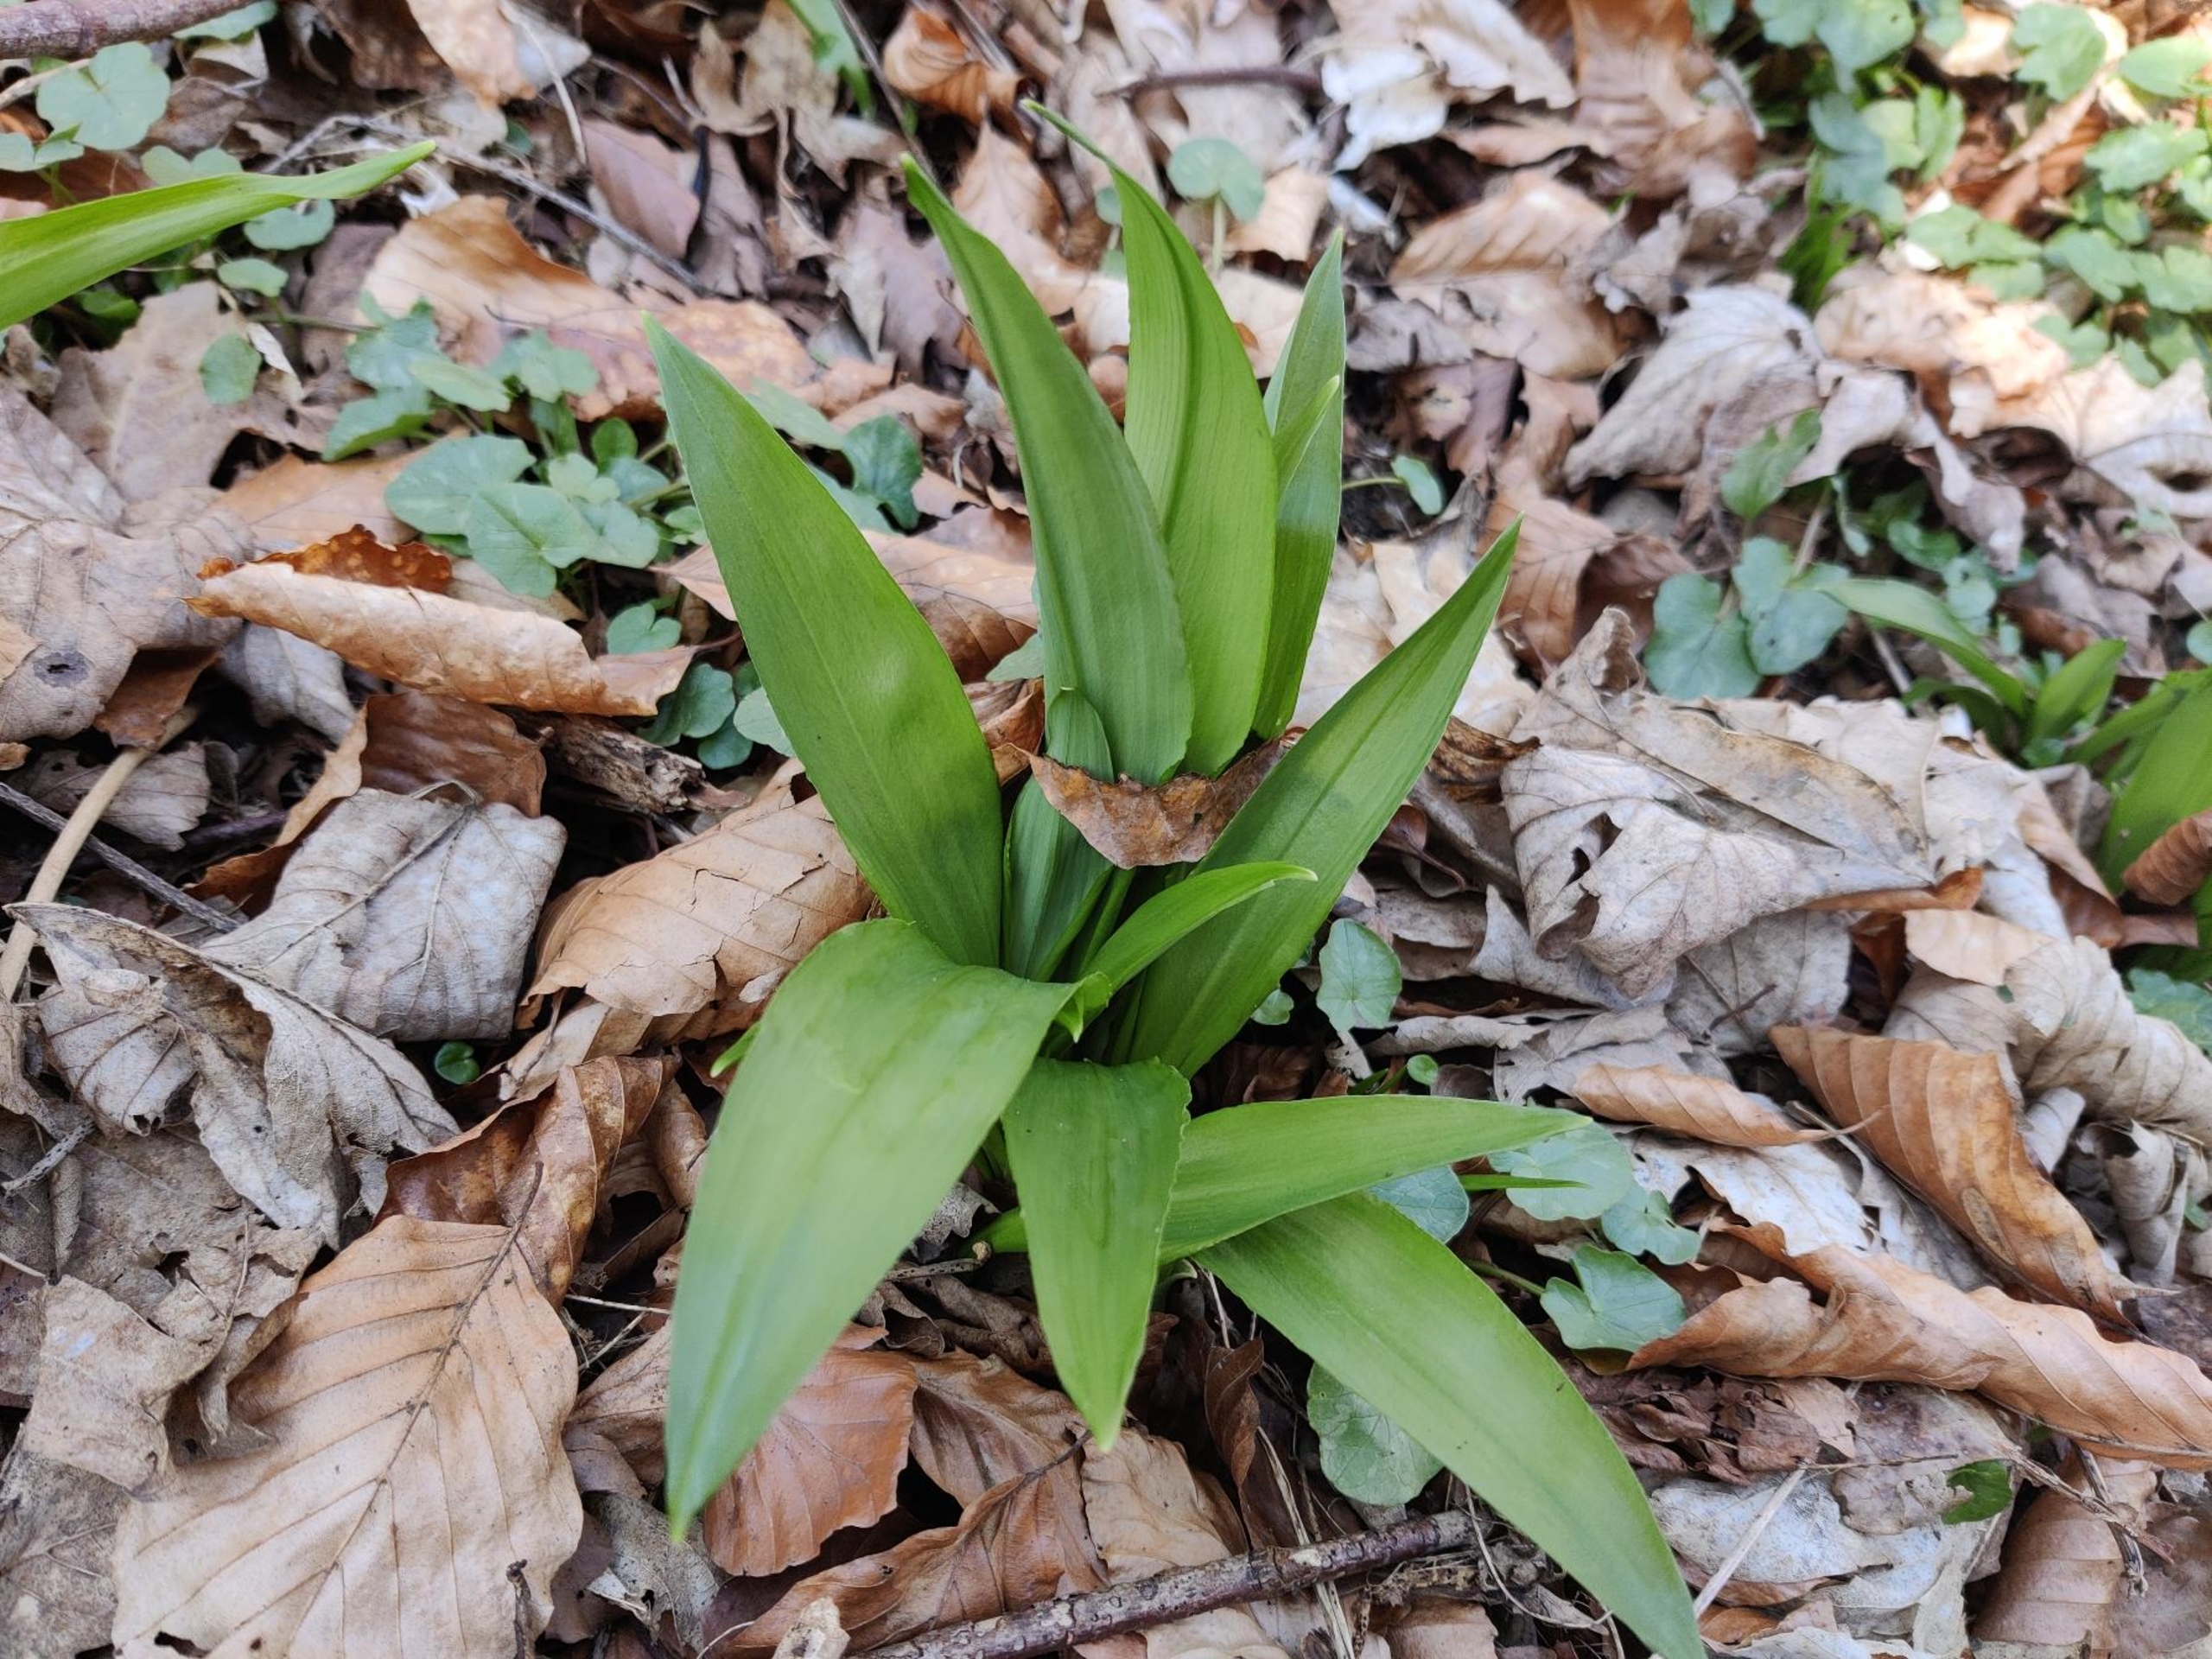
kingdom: Plantae
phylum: Tracheophyta
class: Liliopsida
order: Asparagales
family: Amaryllidaceae
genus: Allium
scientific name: Allium ursinum
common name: Rams-løg
